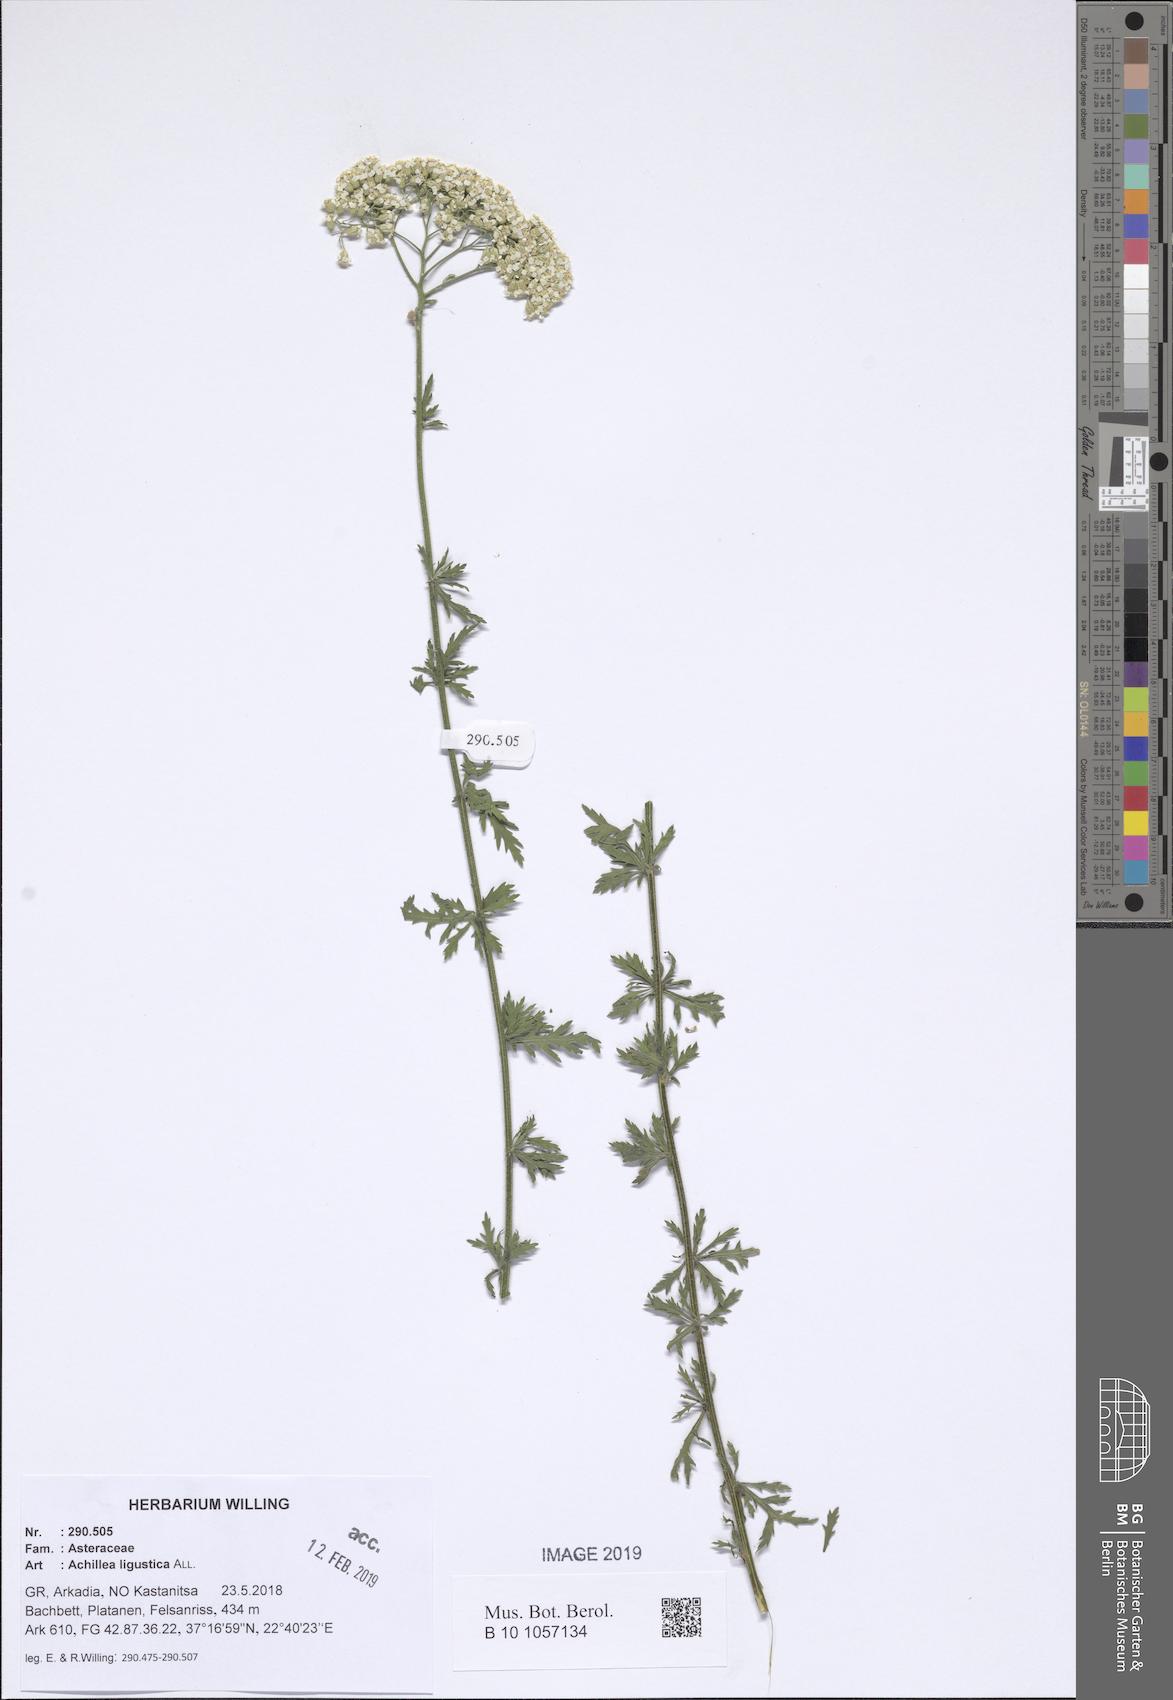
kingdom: Plantae
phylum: Tracheophyta
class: Magnoliopsida
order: Asterales
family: Asteraceae
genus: Achillea
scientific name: Achillea ligustica
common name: Southern yarrow
